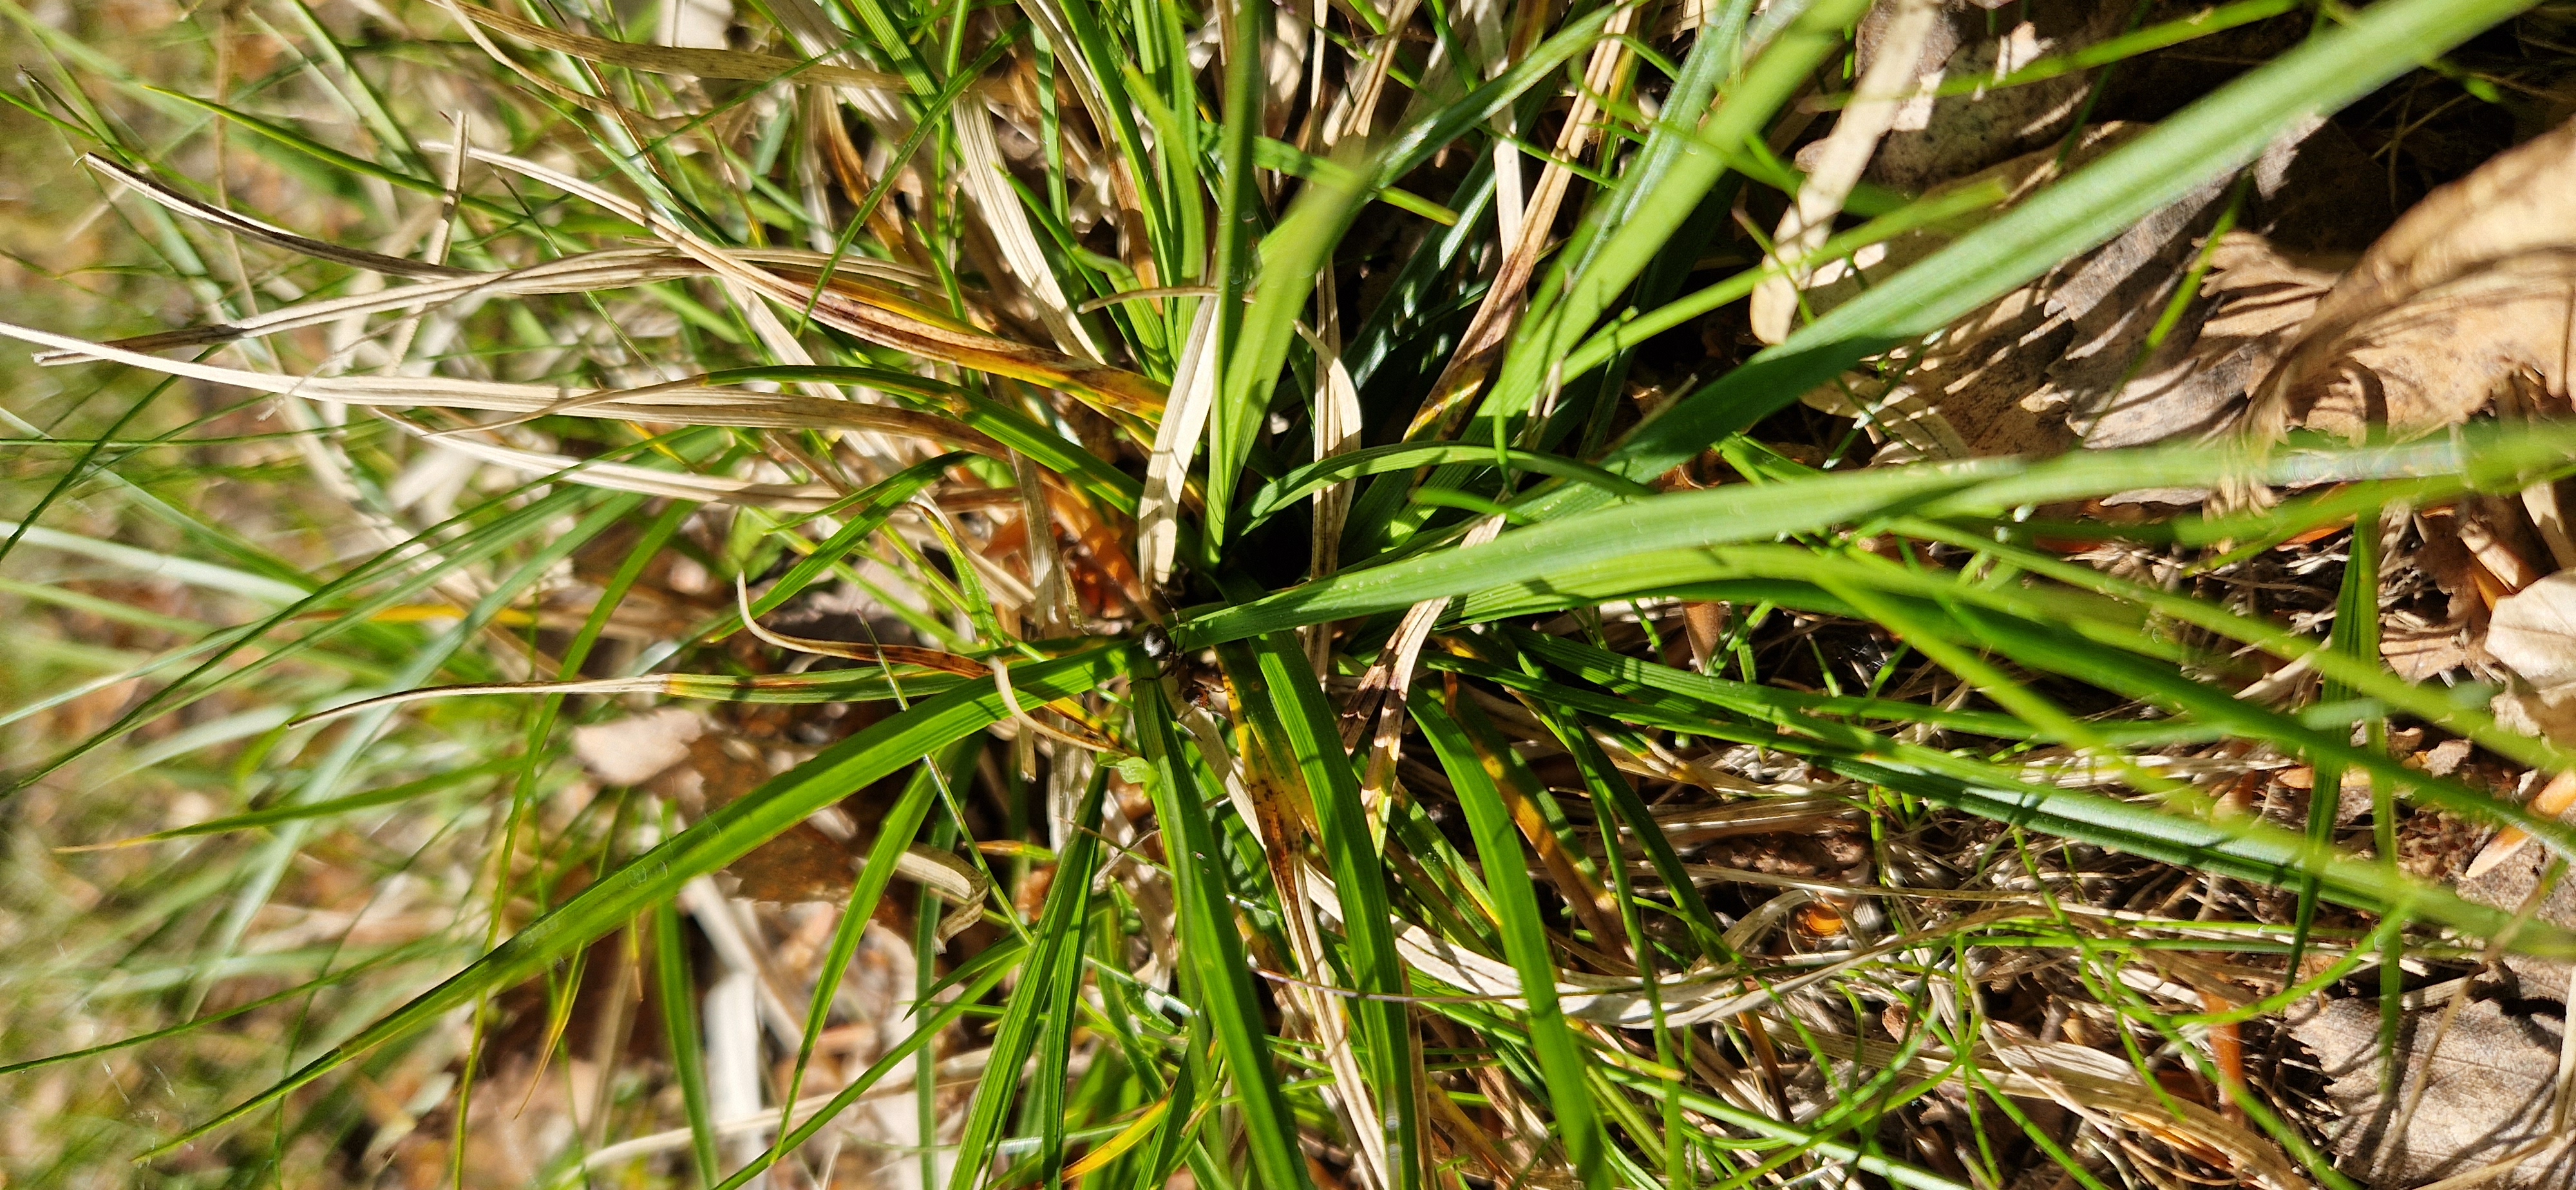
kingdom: Plantae
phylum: Tracheophyta
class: Liliopsida
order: Poales
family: Cyperaceae
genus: Carex
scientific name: Carex pilulifera
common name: Pille-star
